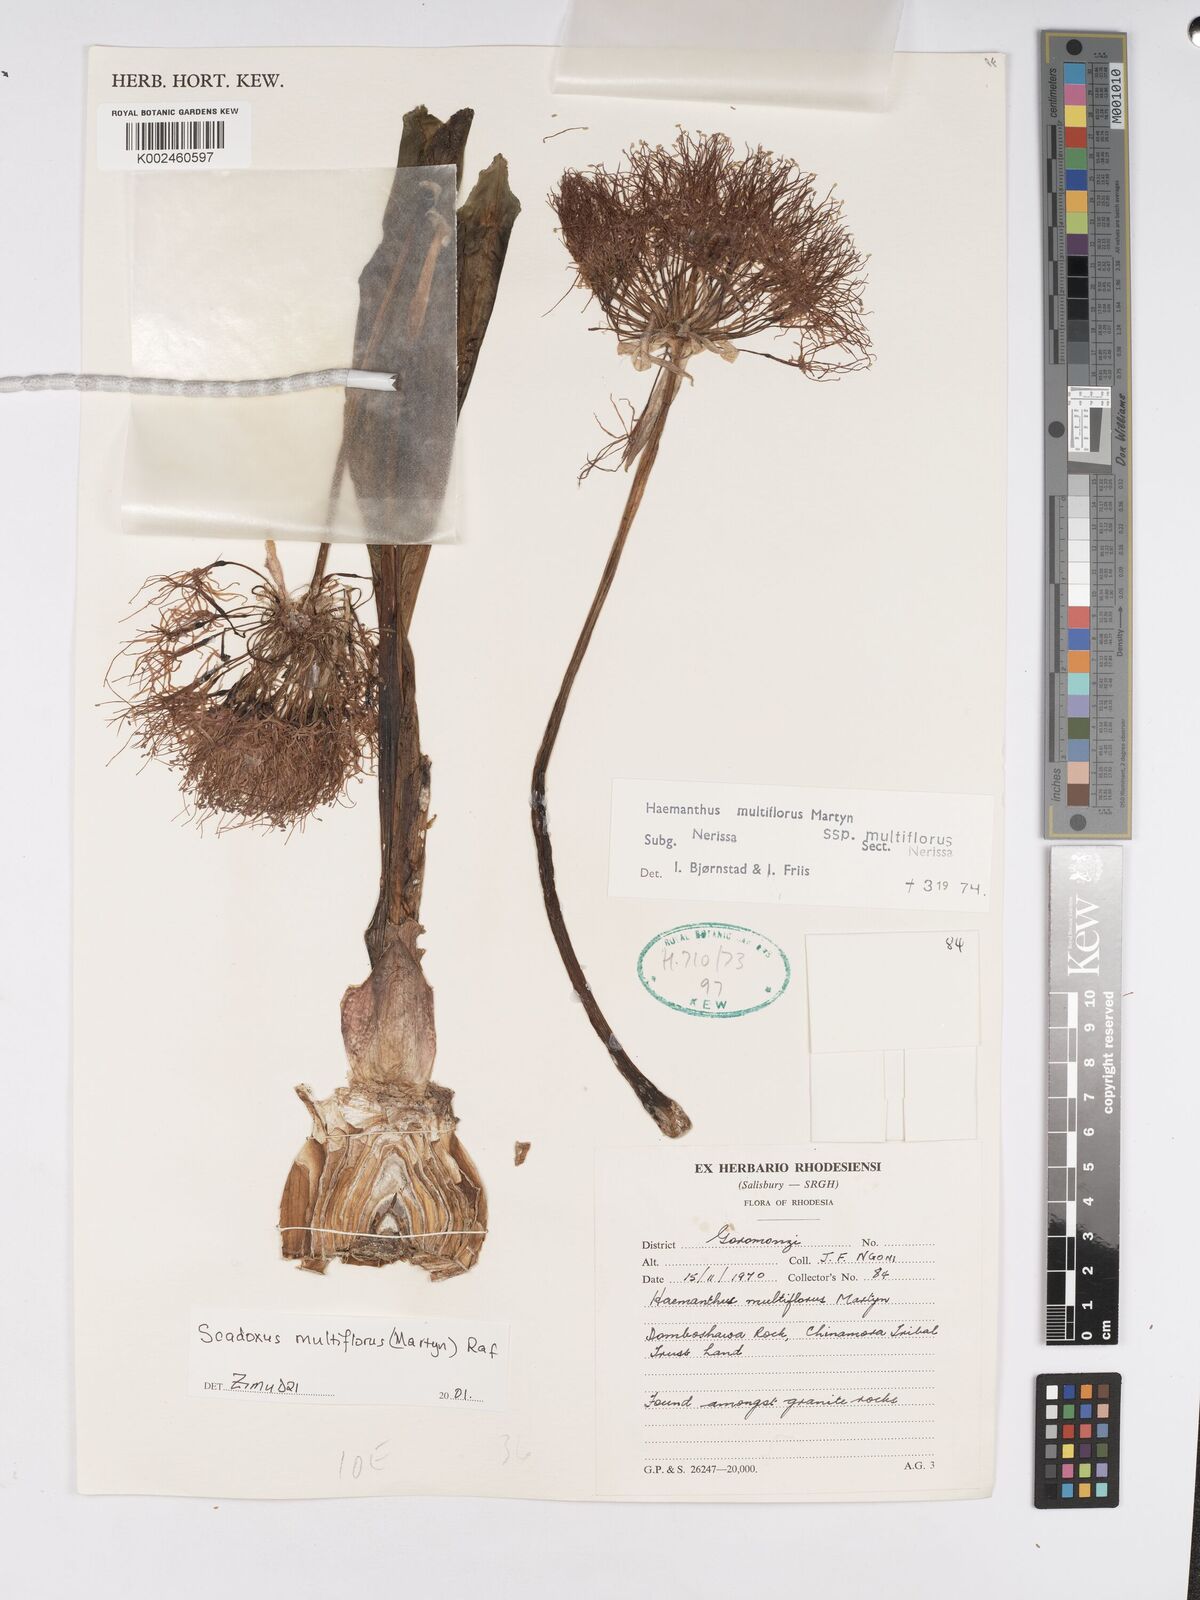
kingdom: Plantae
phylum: Tracheophyta
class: Liliopsida
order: Asparagales
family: Amaryllidaceae
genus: Scadoxus
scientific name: Scadoxus multiflorus
